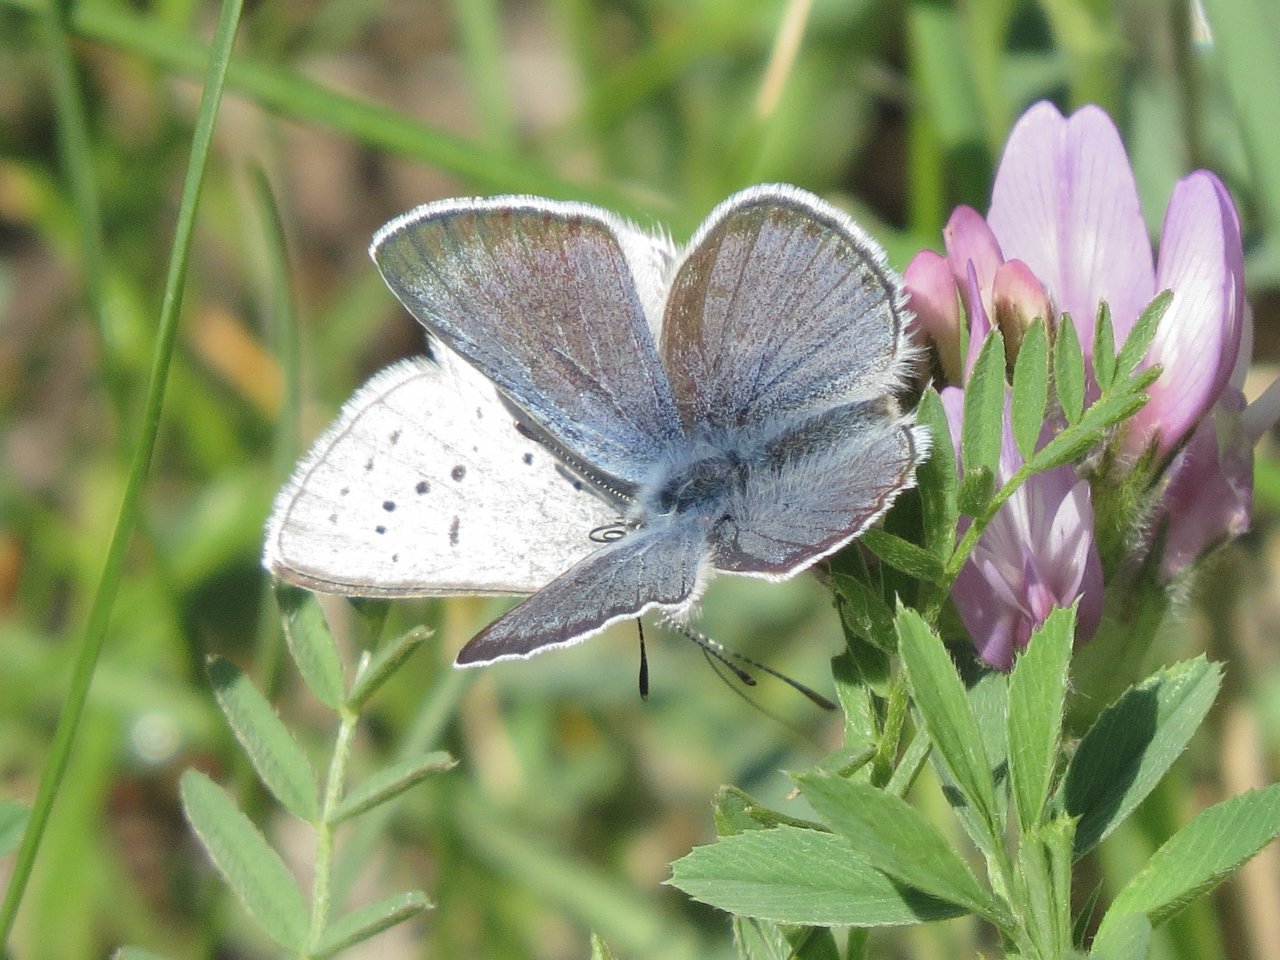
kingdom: Animalia
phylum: Arthropoda
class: Insecta
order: Lepidoptera
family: Lycaenidae
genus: Plebejus
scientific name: Plebejus saepiolus
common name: Greenish Blue
